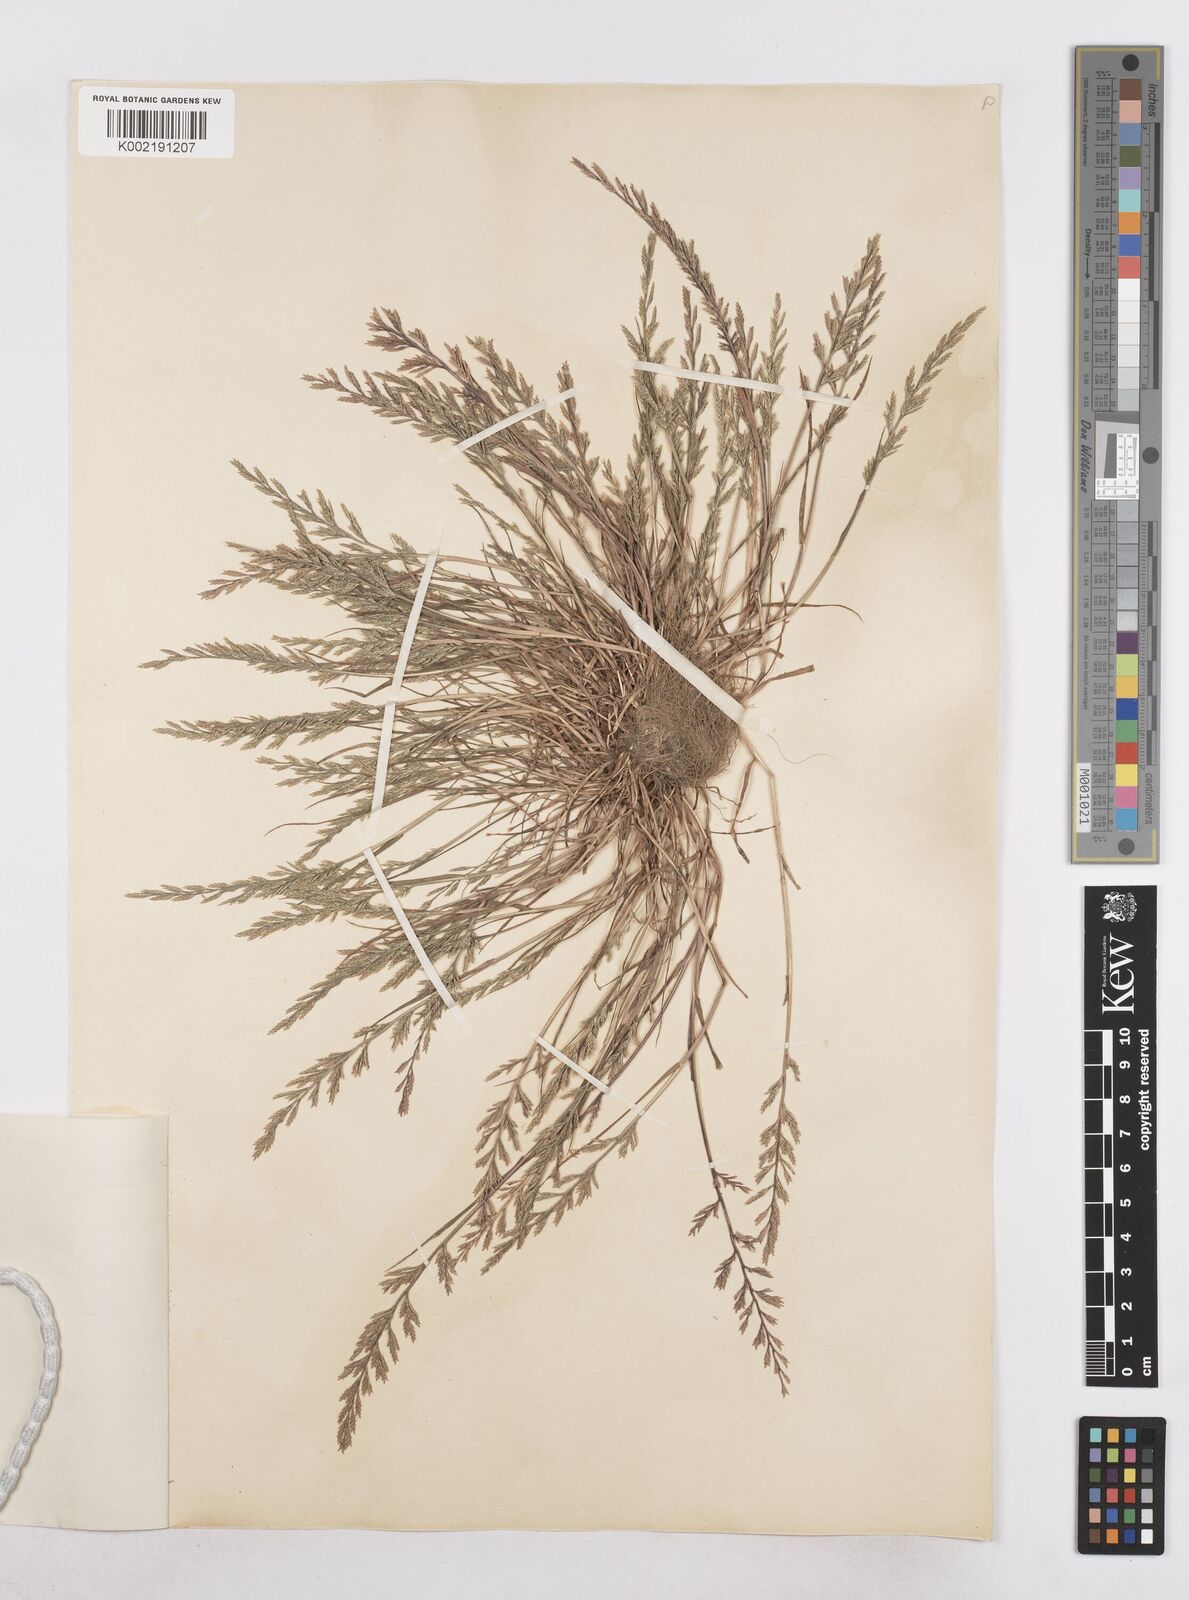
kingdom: Plantae
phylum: Tracheophyta
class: Liliopsida
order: Poales
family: Poaceae
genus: Catapodium
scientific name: Catapodium rigidum
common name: Fern-grass
